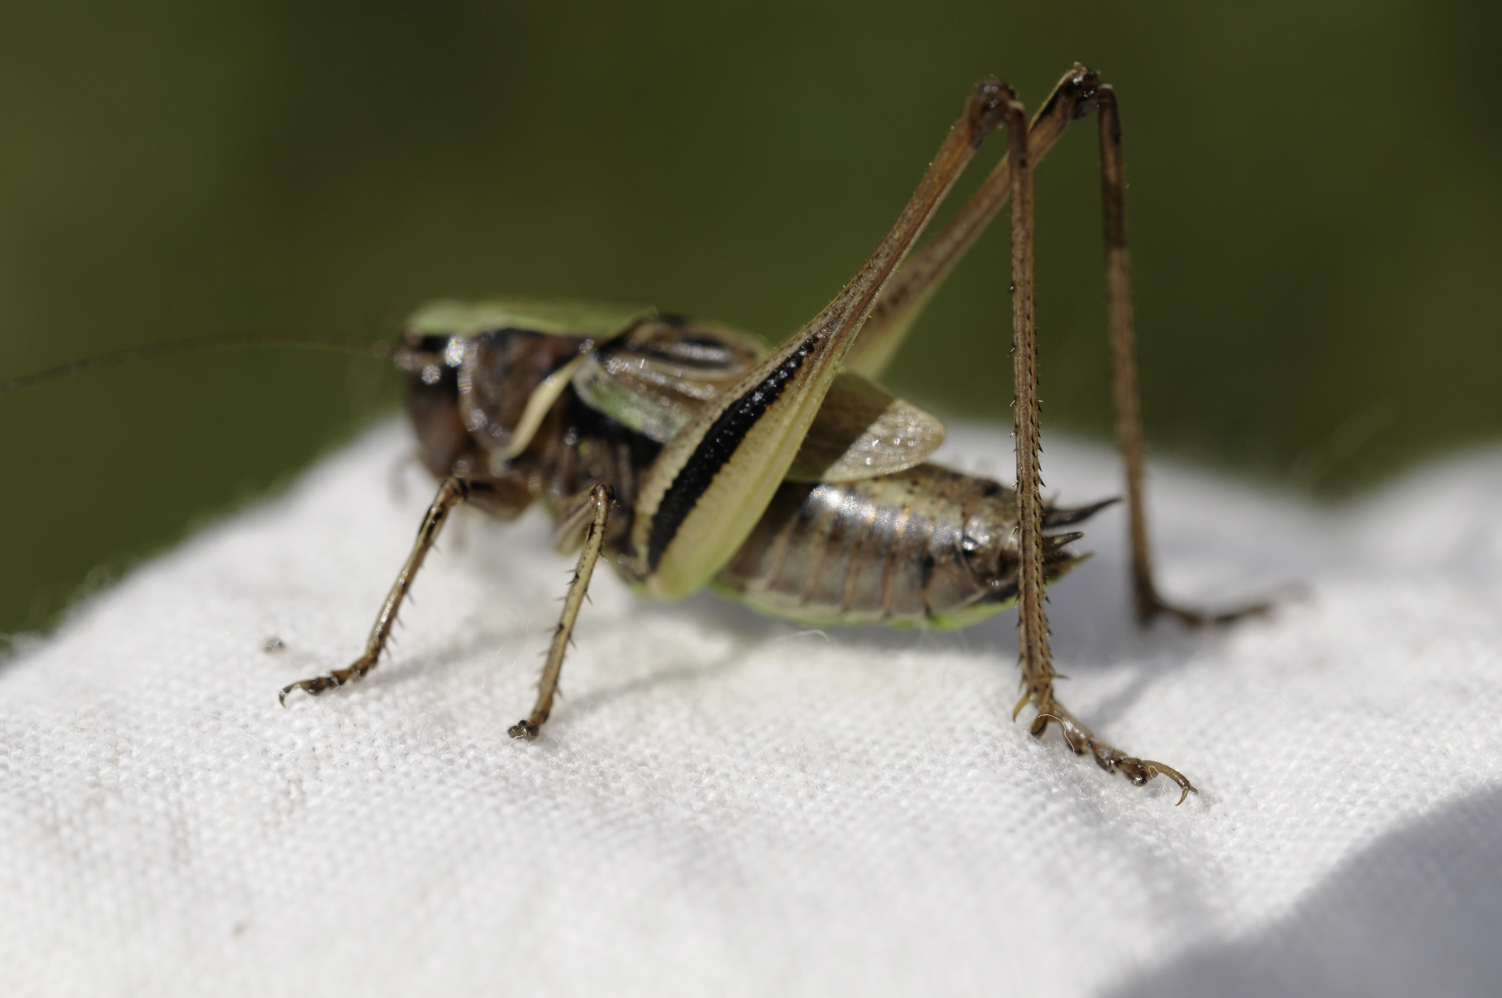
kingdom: Animalia
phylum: Arthropoda
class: Insecta
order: Orthoptera
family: Tettigoniidae
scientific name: Tettigoniidae
